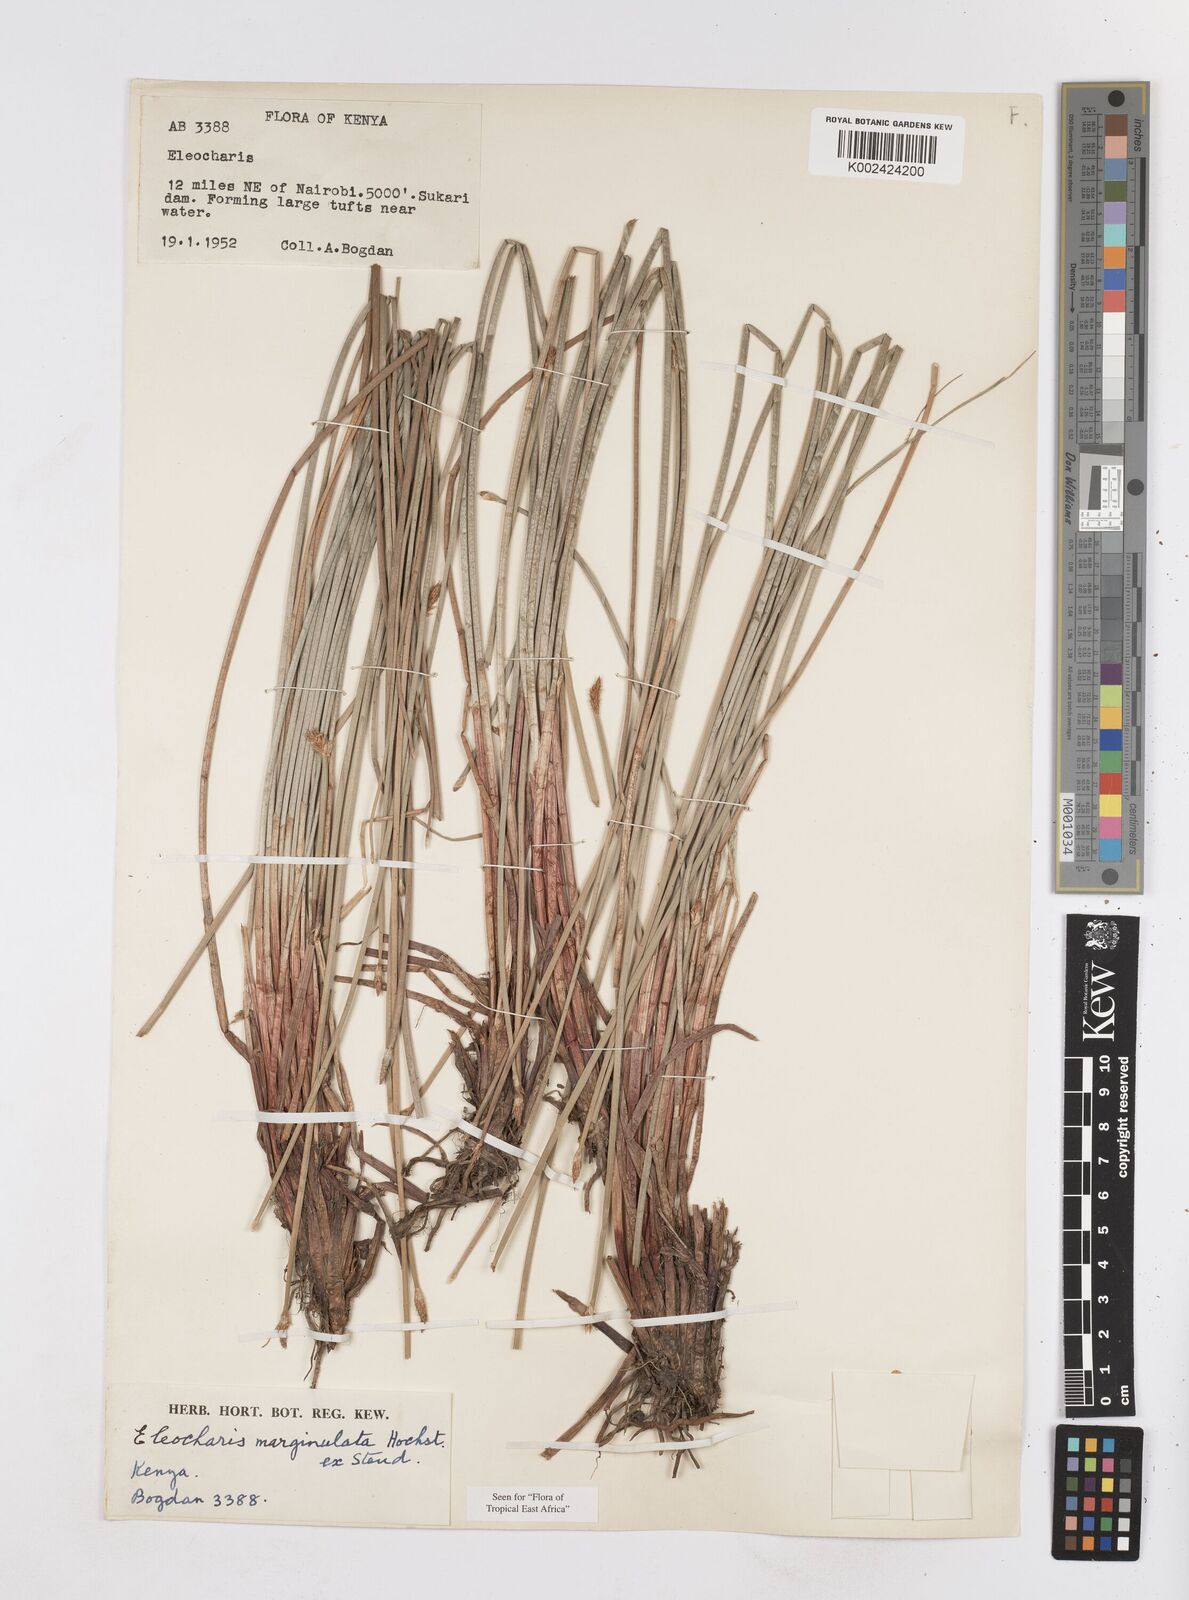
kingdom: Plantae
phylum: Tracheophyta
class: Liliopsida
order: Poales
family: Cyperaceae
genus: Eleocharis
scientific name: Eleocharis marginulata
